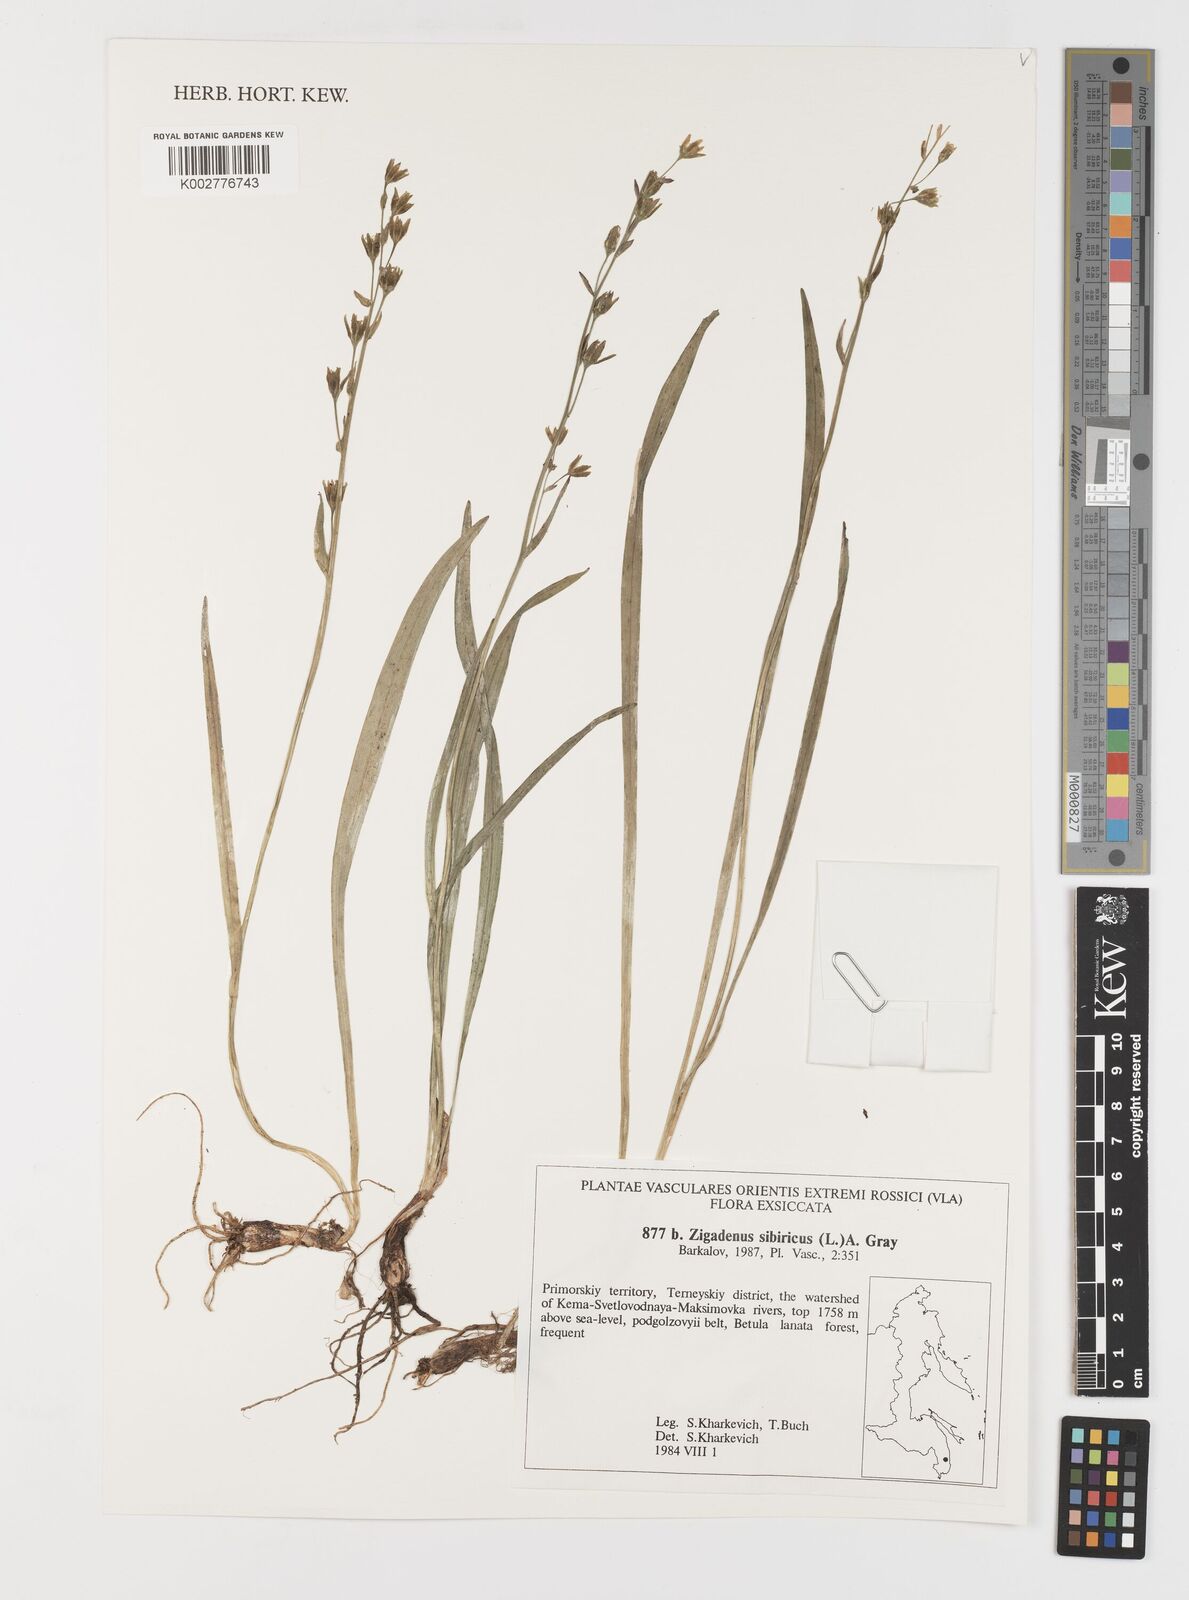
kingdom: Plantae
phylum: Tracheophyta
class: Liliopsida
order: Liliales
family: Melanthiaceae
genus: Anticlea
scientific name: Anticlea sibirica
